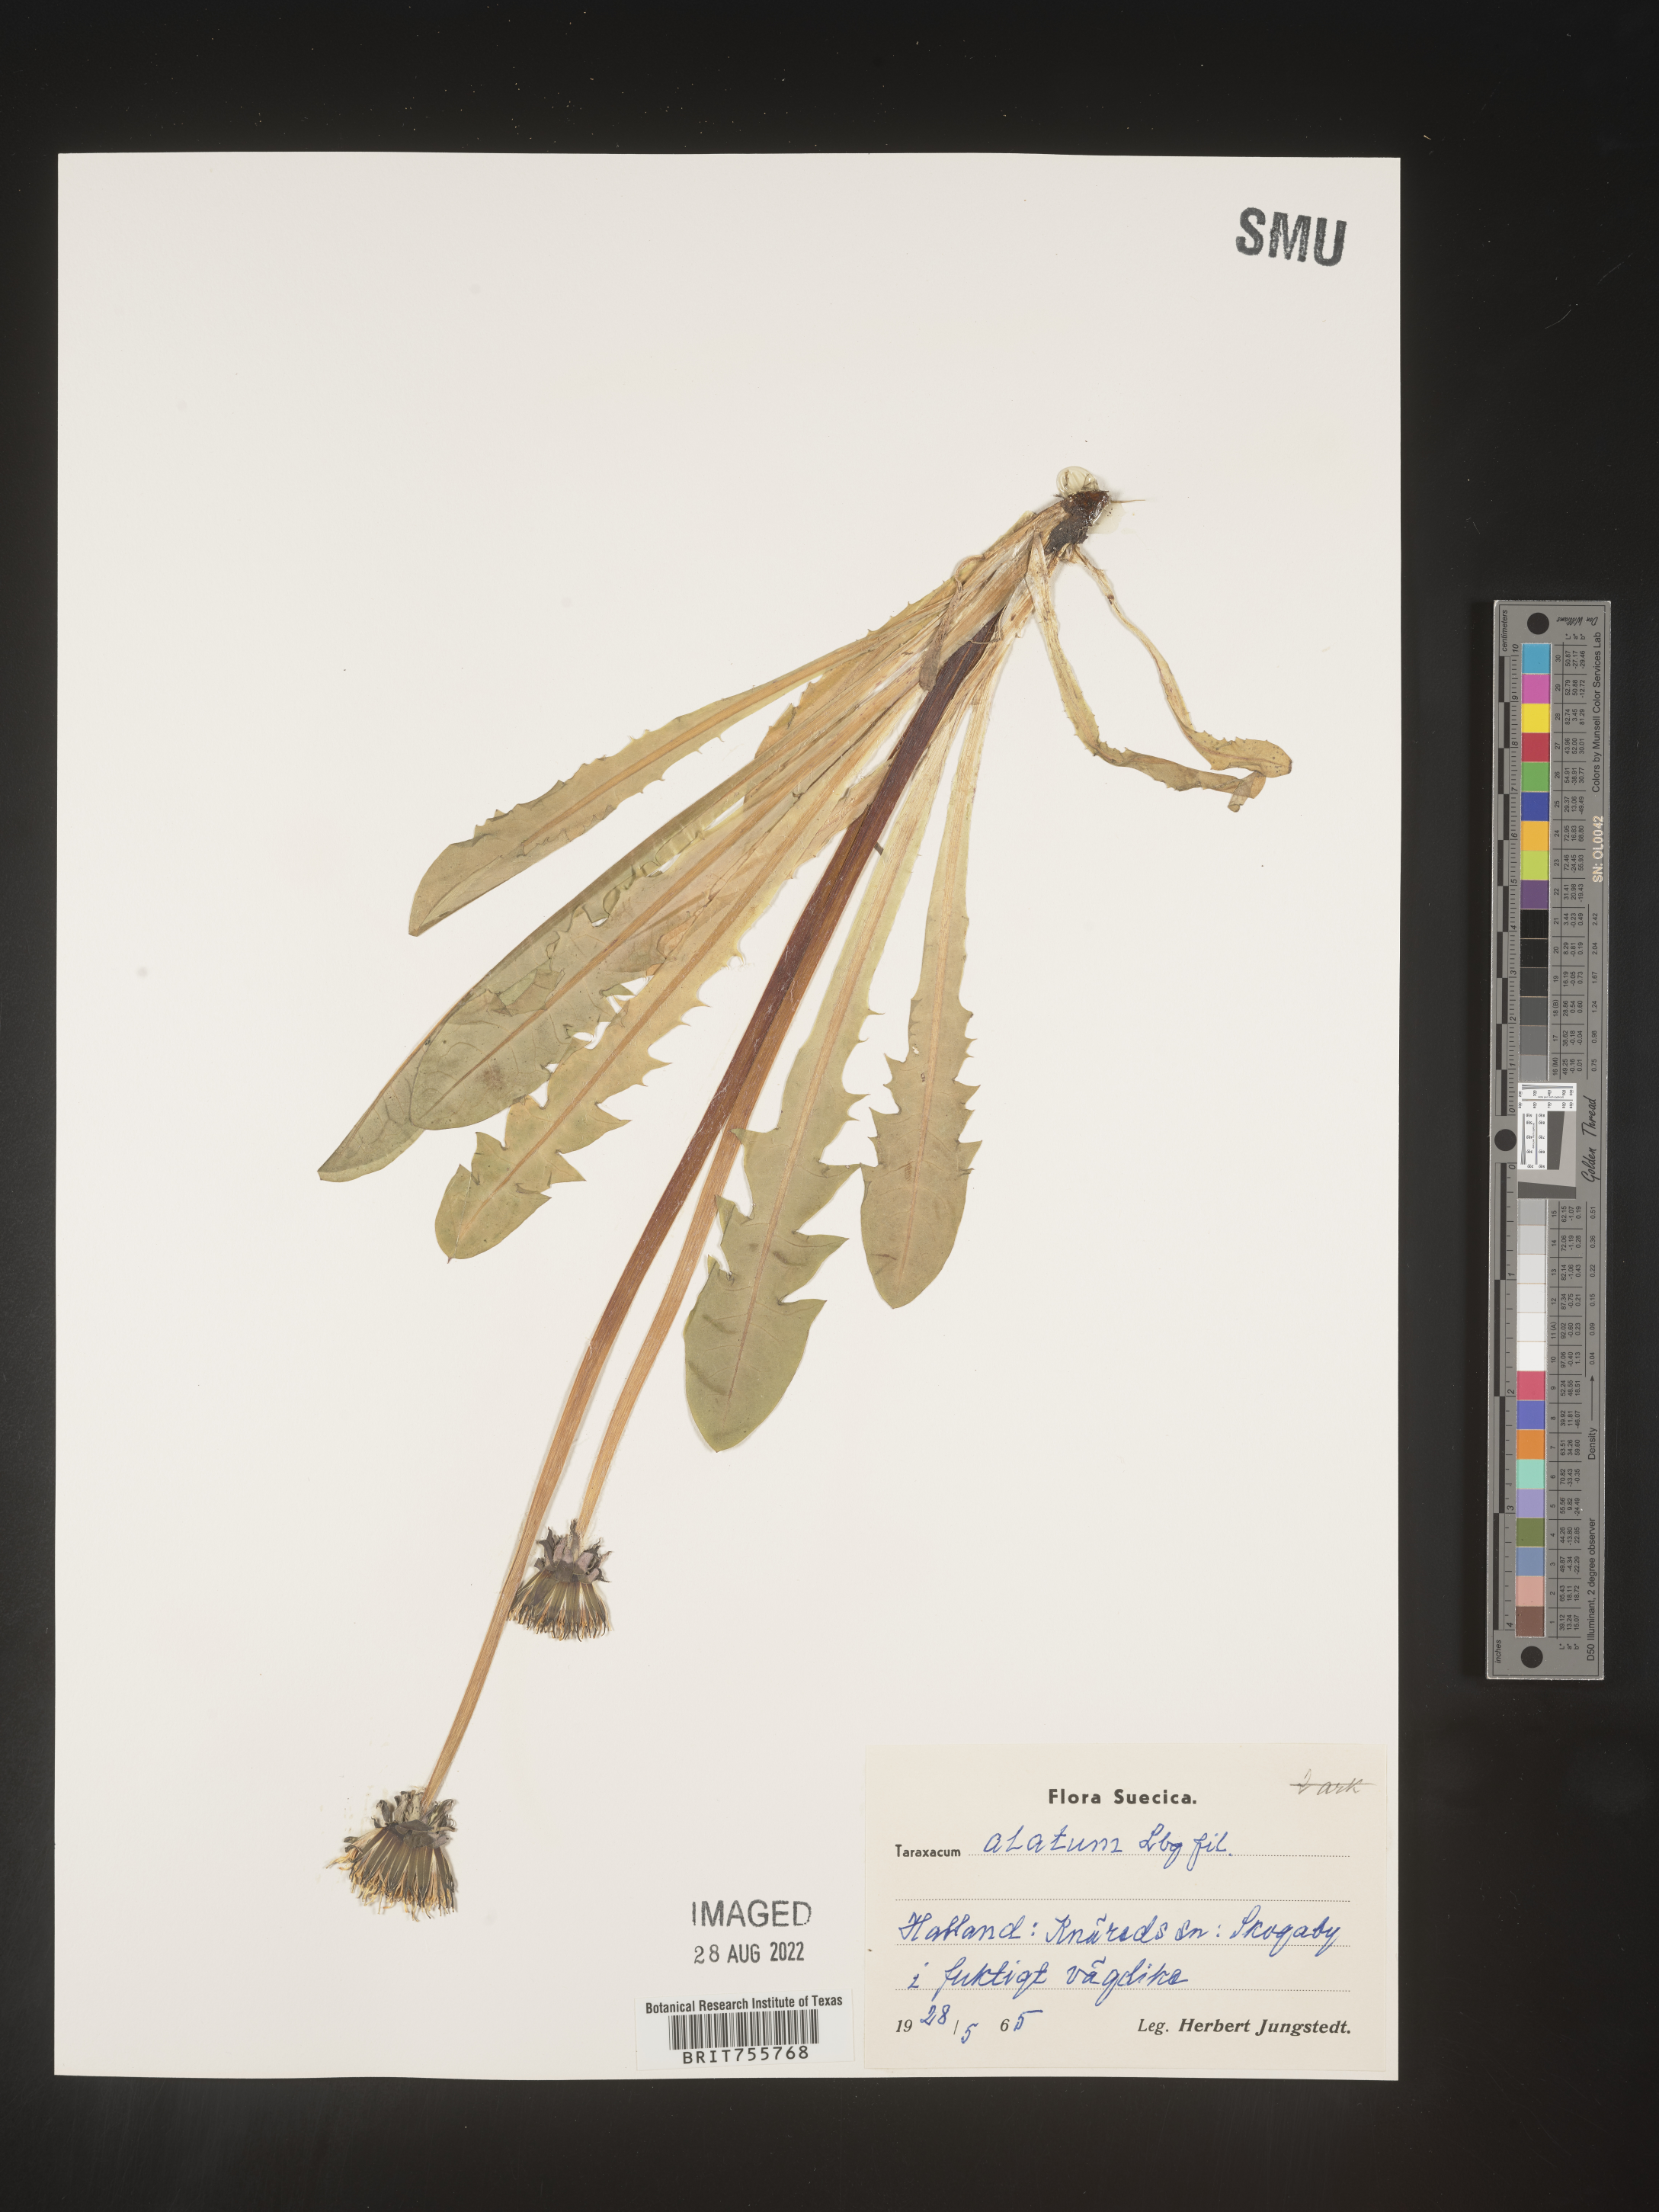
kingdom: Plantae
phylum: Tracheophyta
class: Magnoliopsida
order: Asterales
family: Asteraceae
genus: Taraxacum
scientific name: Taraxacum
